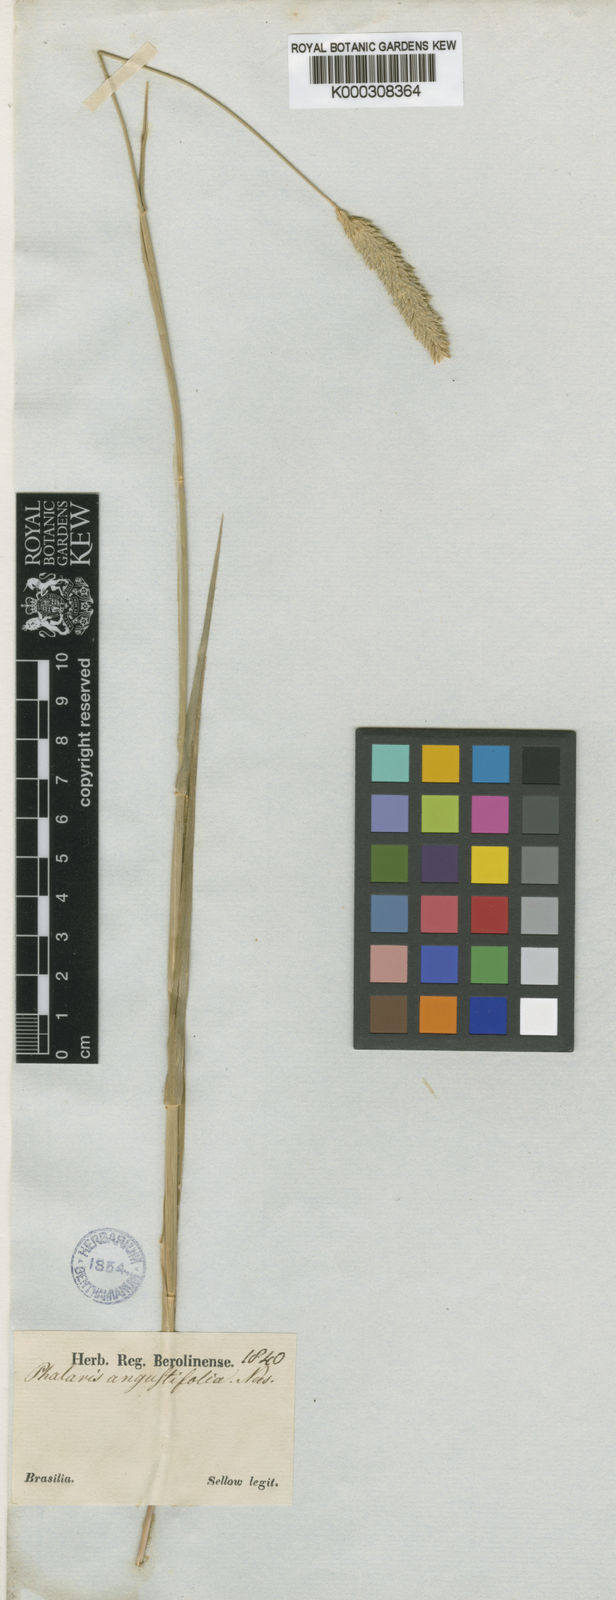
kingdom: Plantae
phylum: Tracheophyta
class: Liliopsida
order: Poales
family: Poaceae
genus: Phalaris
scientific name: Phalaris
